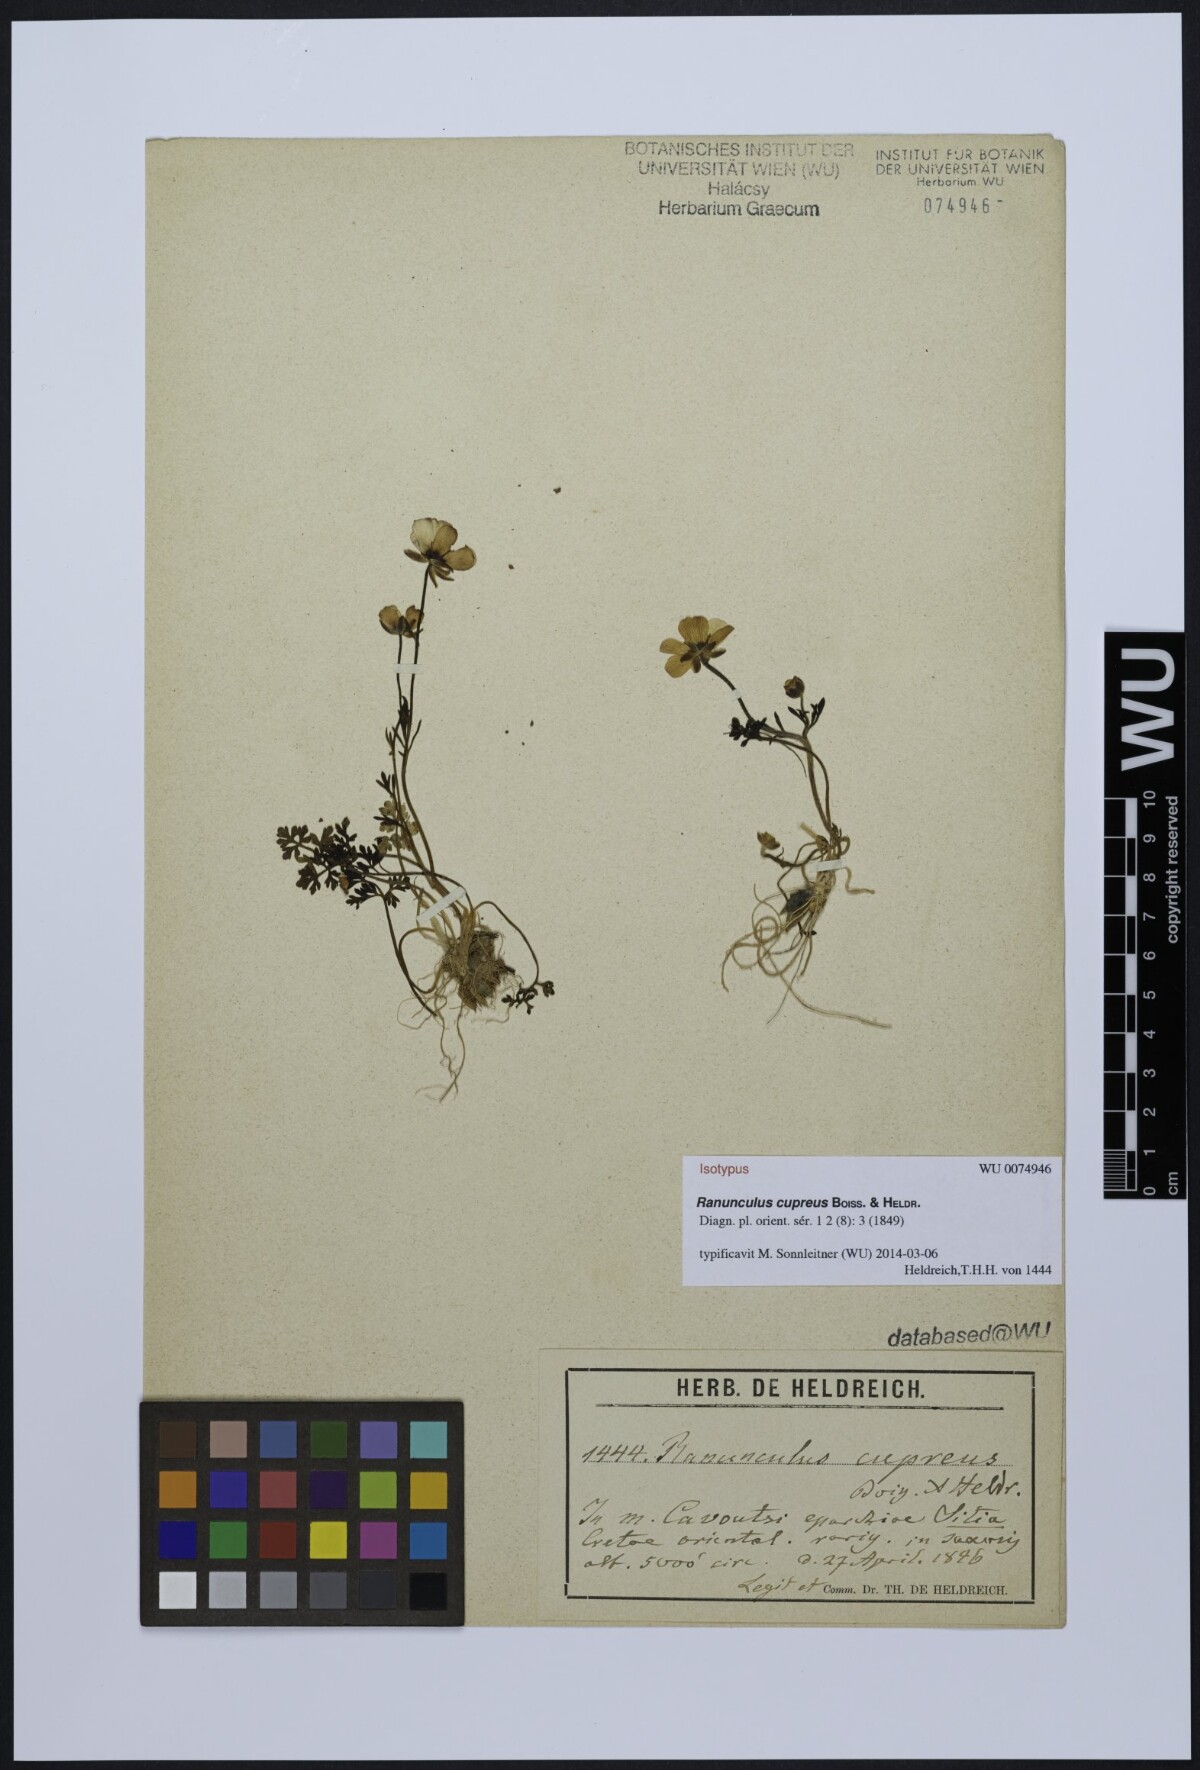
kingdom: Plantae
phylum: Tracheophyta
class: Magnoliopsida
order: Ranunculales
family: Ranunculaceae
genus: Ranunculus
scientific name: Ranunculus cupreus
